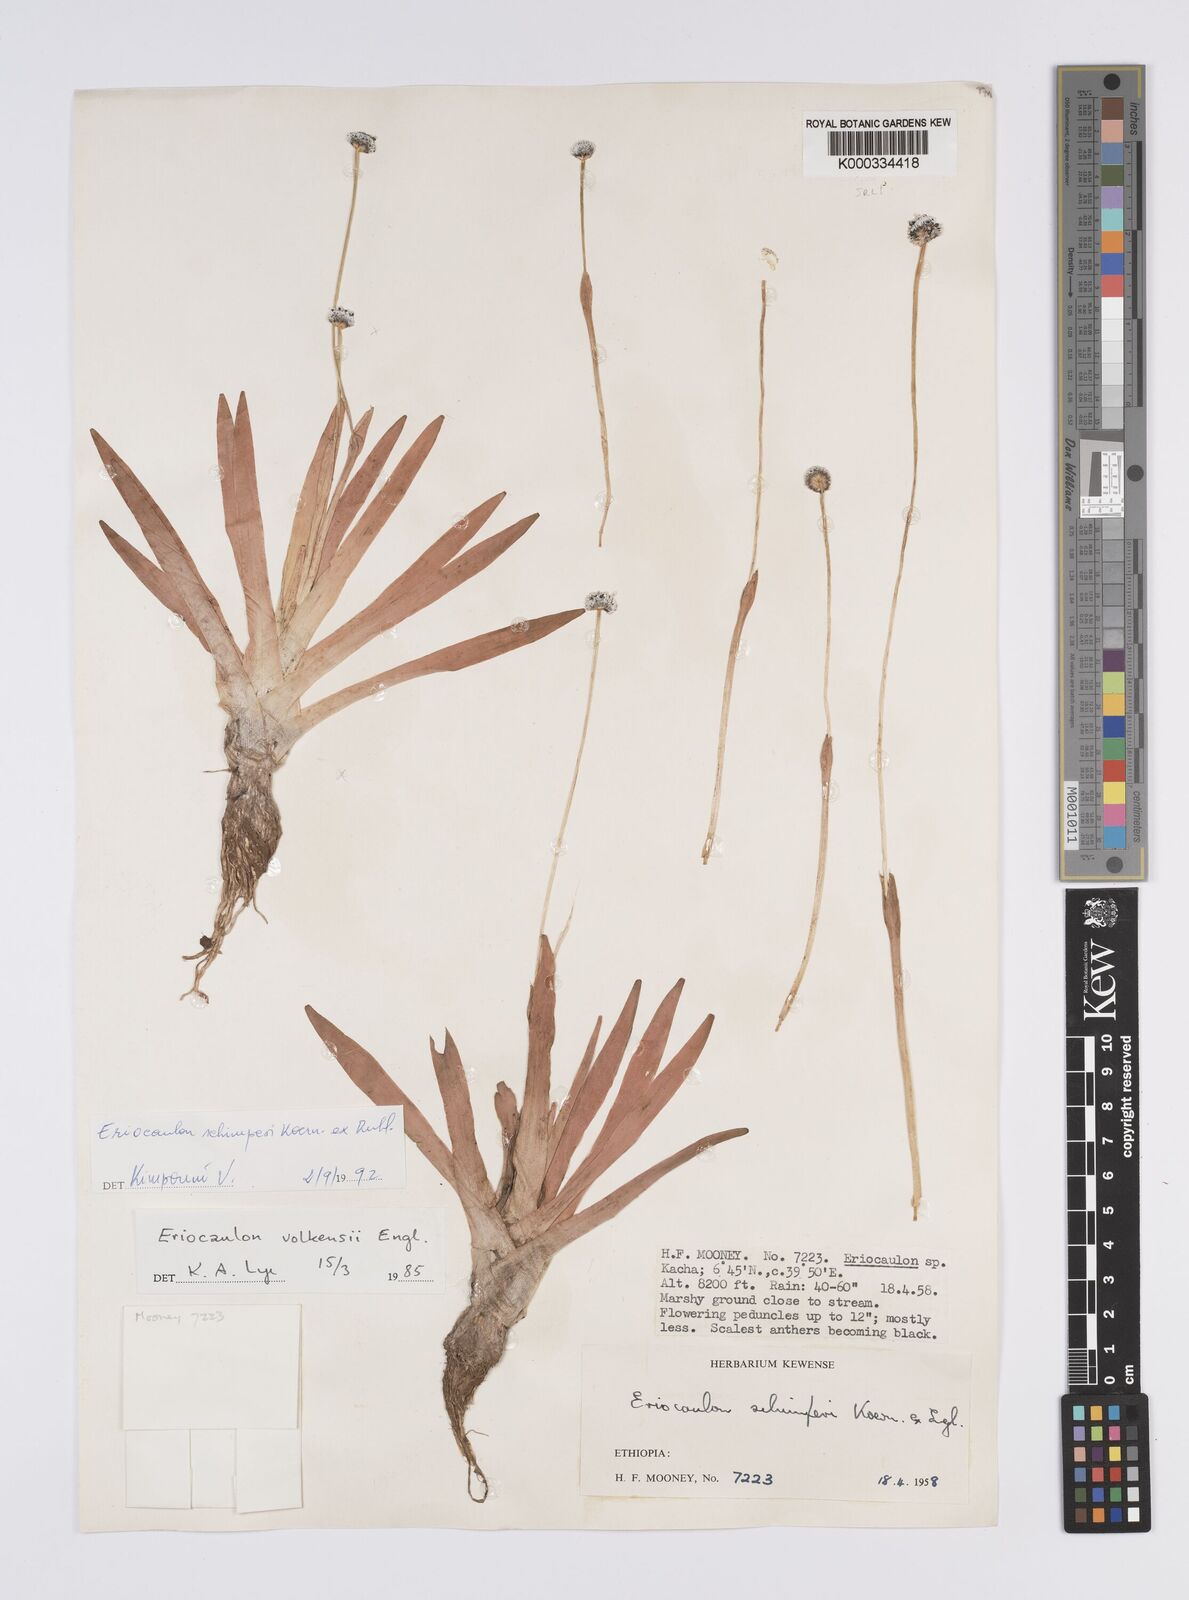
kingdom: Plantae
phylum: Tracheophyta
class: Liliopsida
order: Poales
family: Eriocaulaceae
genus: Eriocaulon
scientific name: Eriocaulon
